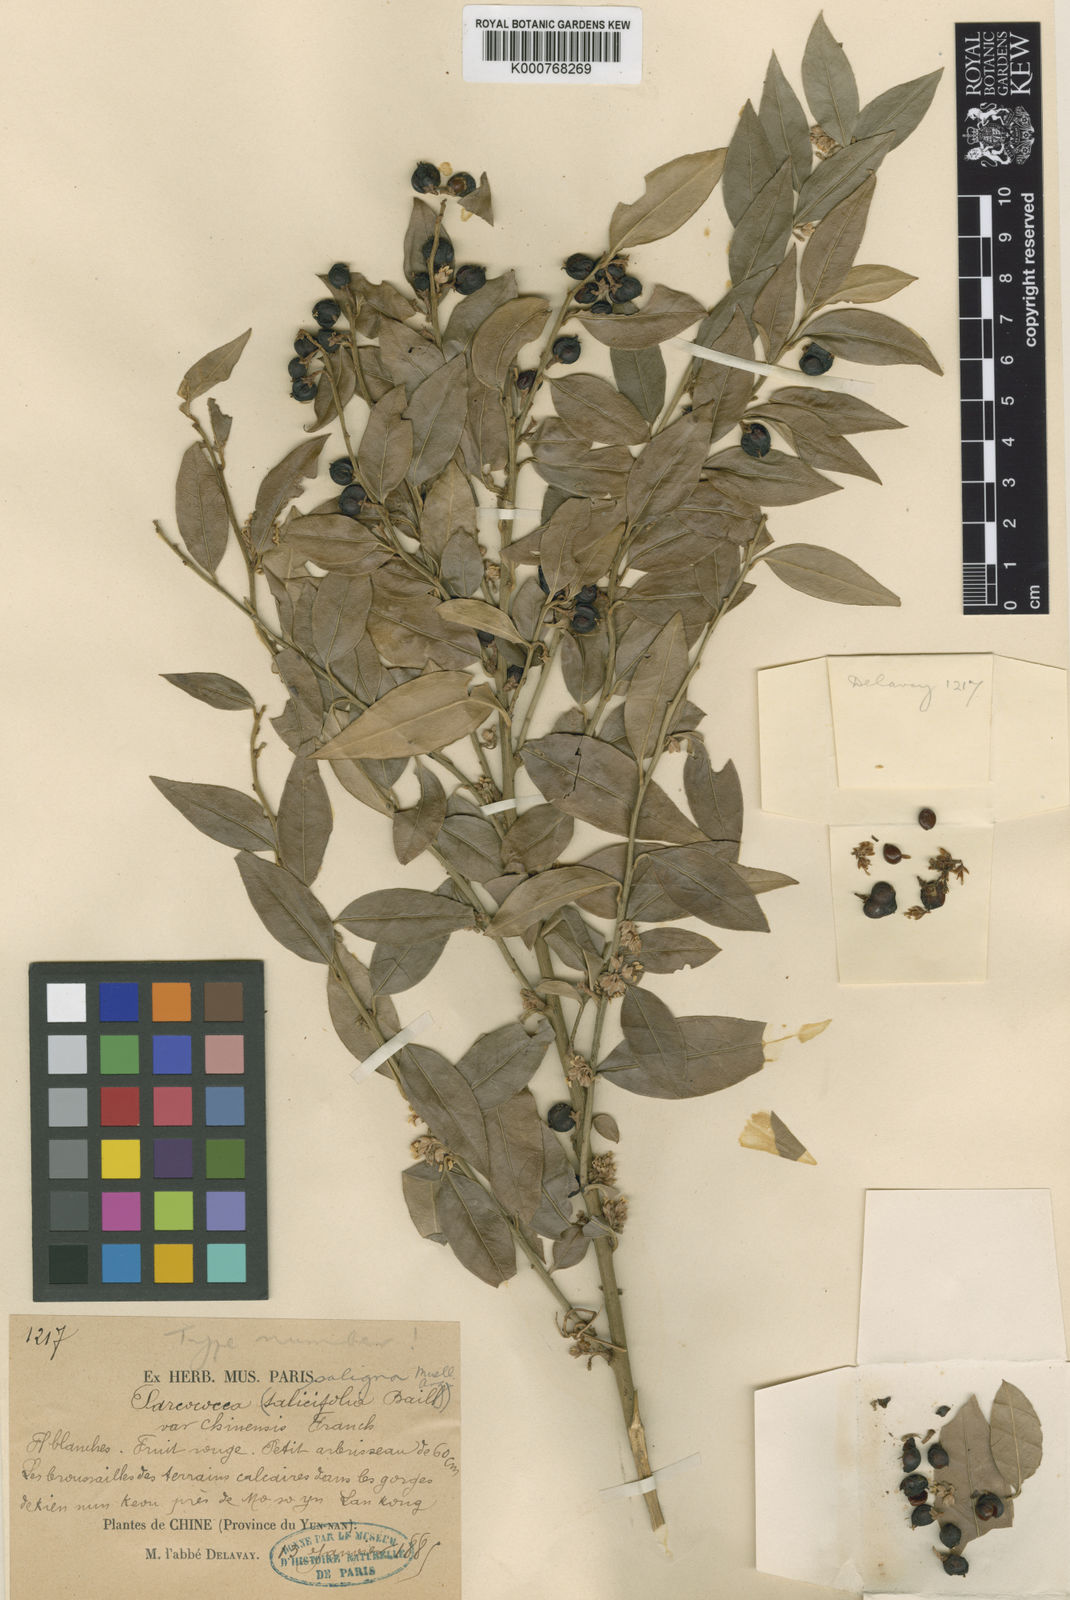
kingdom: Plantae
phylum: Tracheophyta
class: Magnoliopsida
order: Buxales
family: Buxaceae
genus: Sarcococca
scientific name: Sarcococca ruscifolia
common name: Fragrant sweet-box
